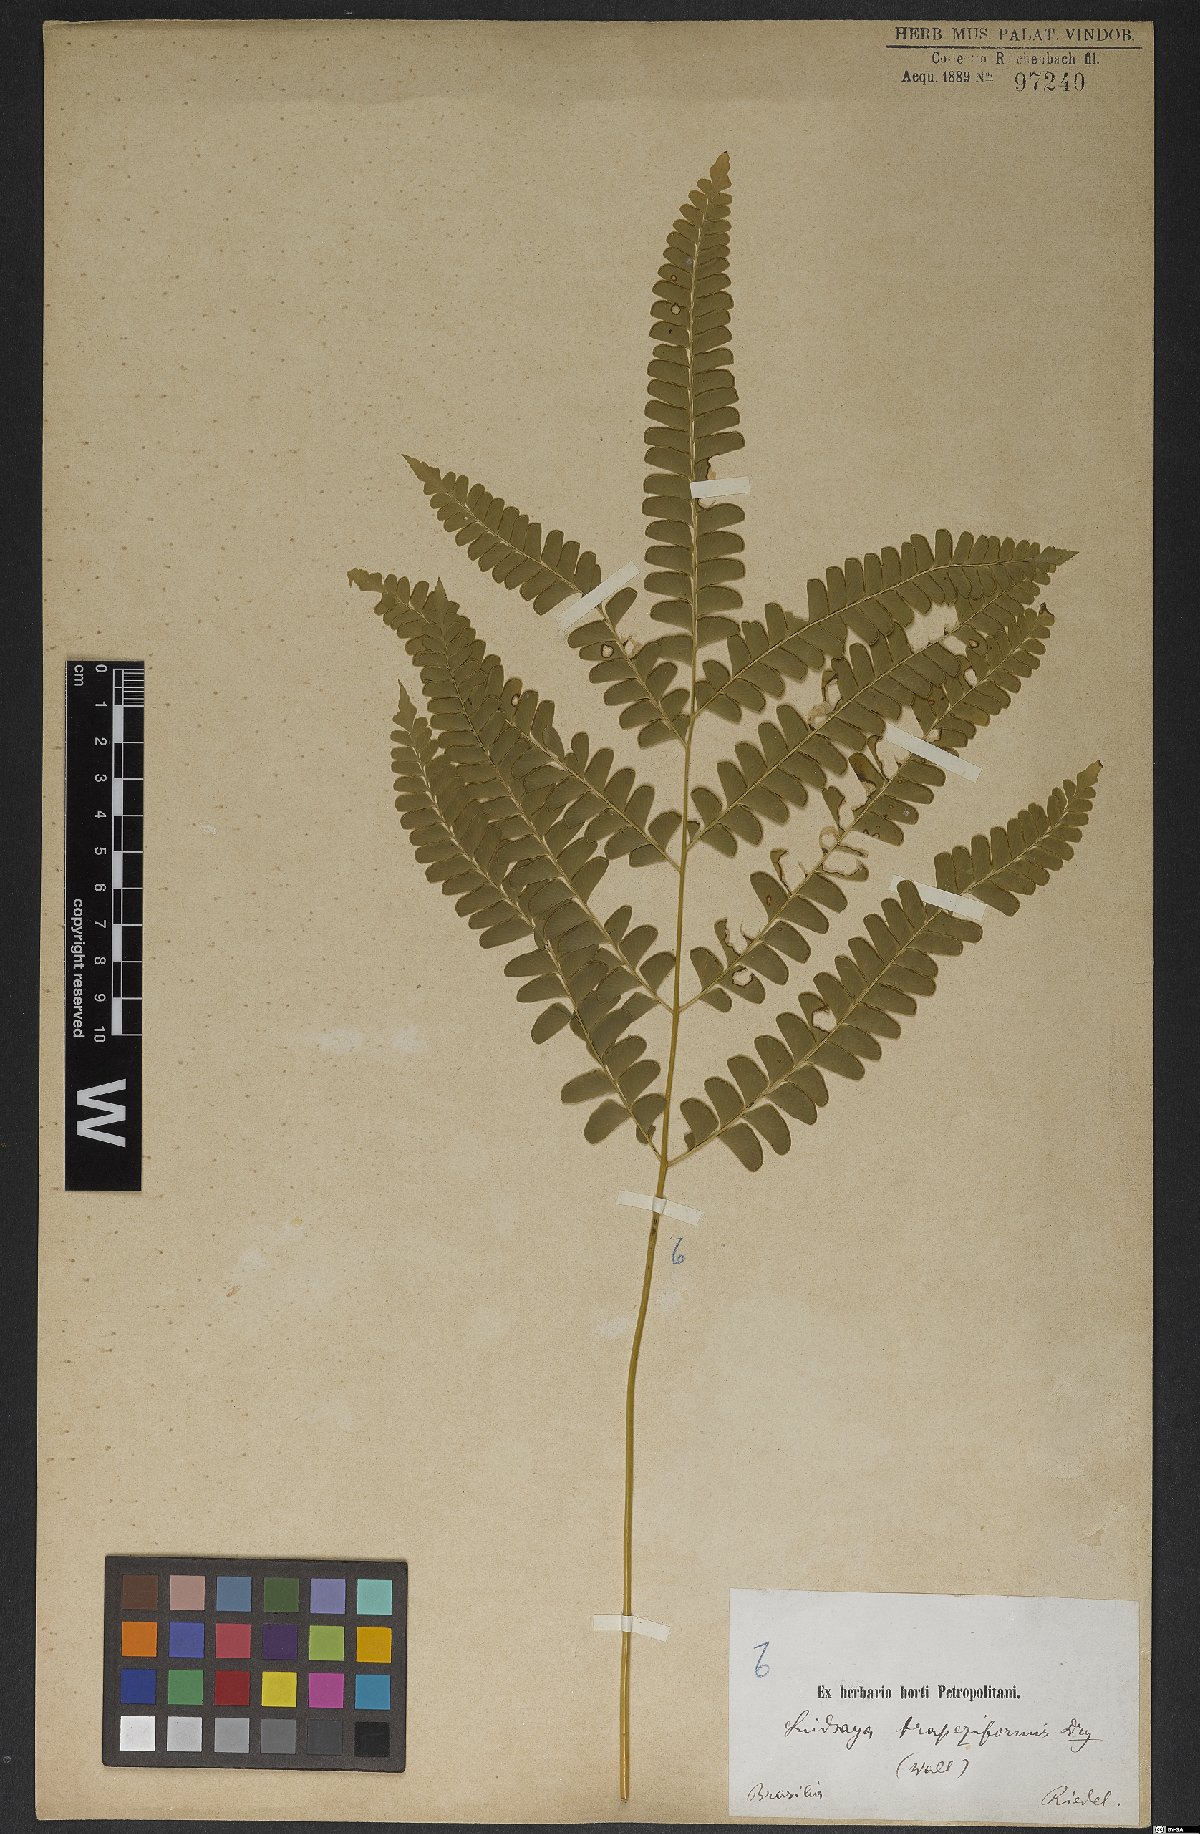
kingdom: Plantae
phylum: Tracheophyta
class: Polypodiopsida
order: Polypodiales
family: Lindsaeaceae
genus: Lindsaea
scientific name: Lindsaea lancea
